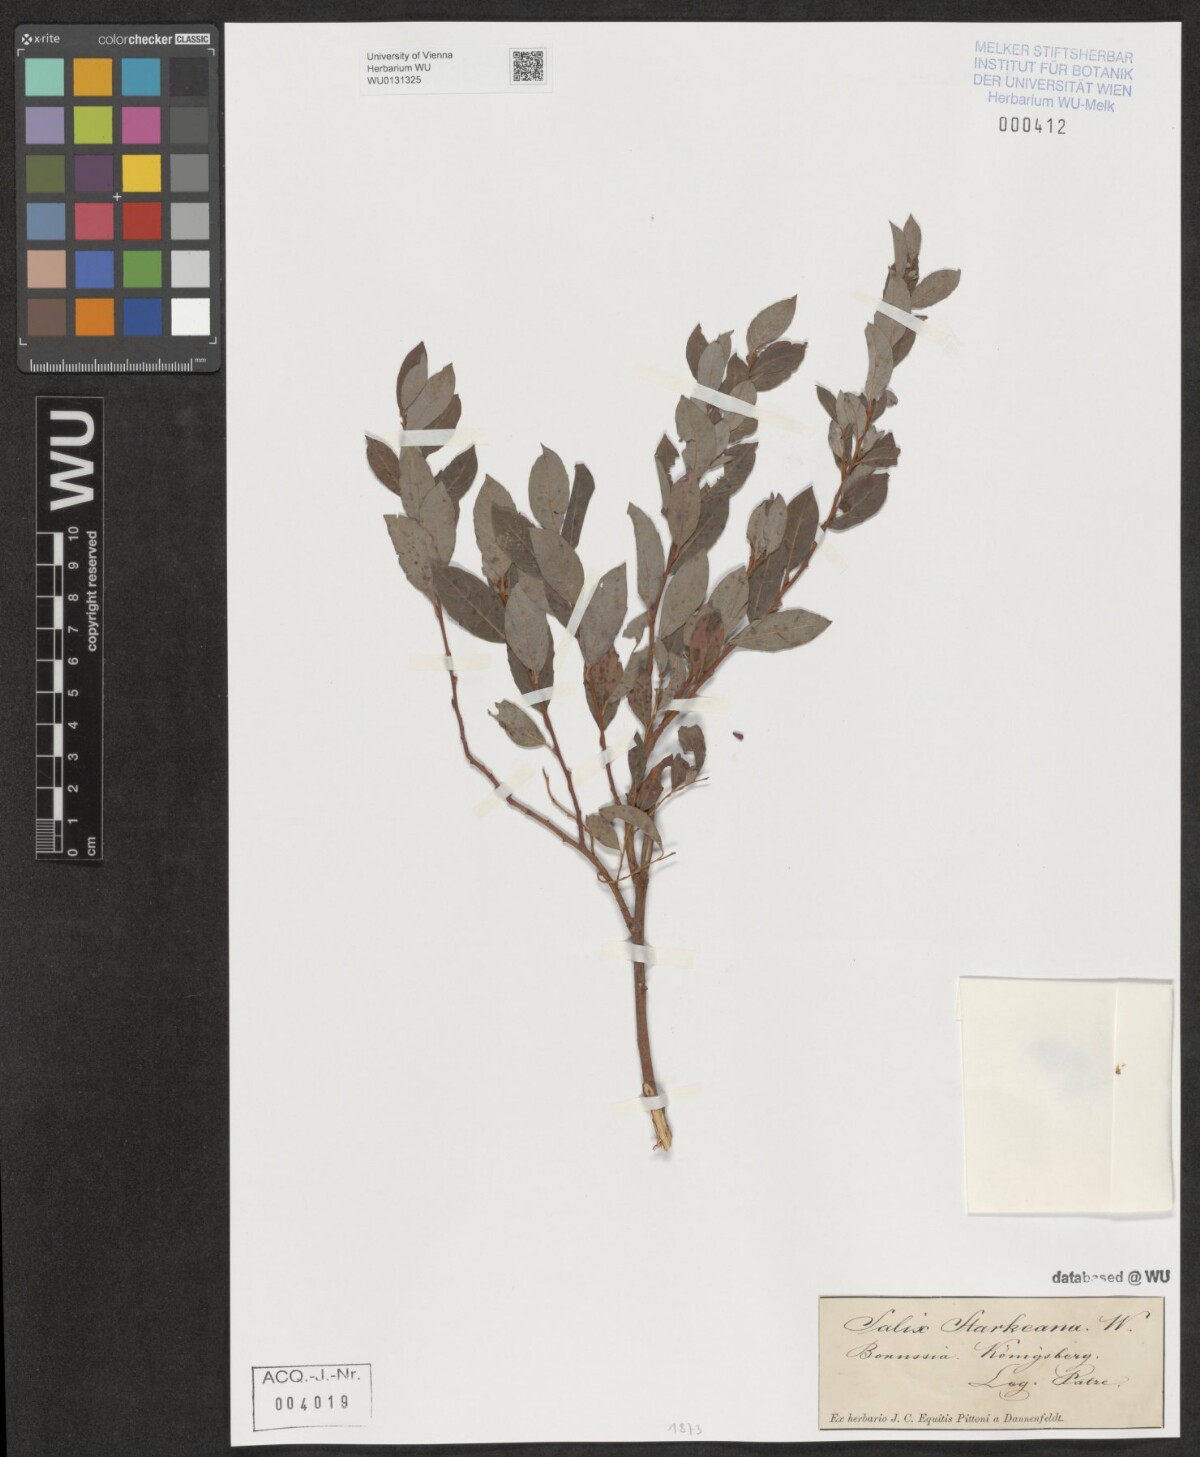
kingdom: Plantae
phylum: Tracheophyta
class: Magnoliopsida
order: Malpighiales
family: Salicaceae
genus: Salix
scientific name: Salix starkeana
